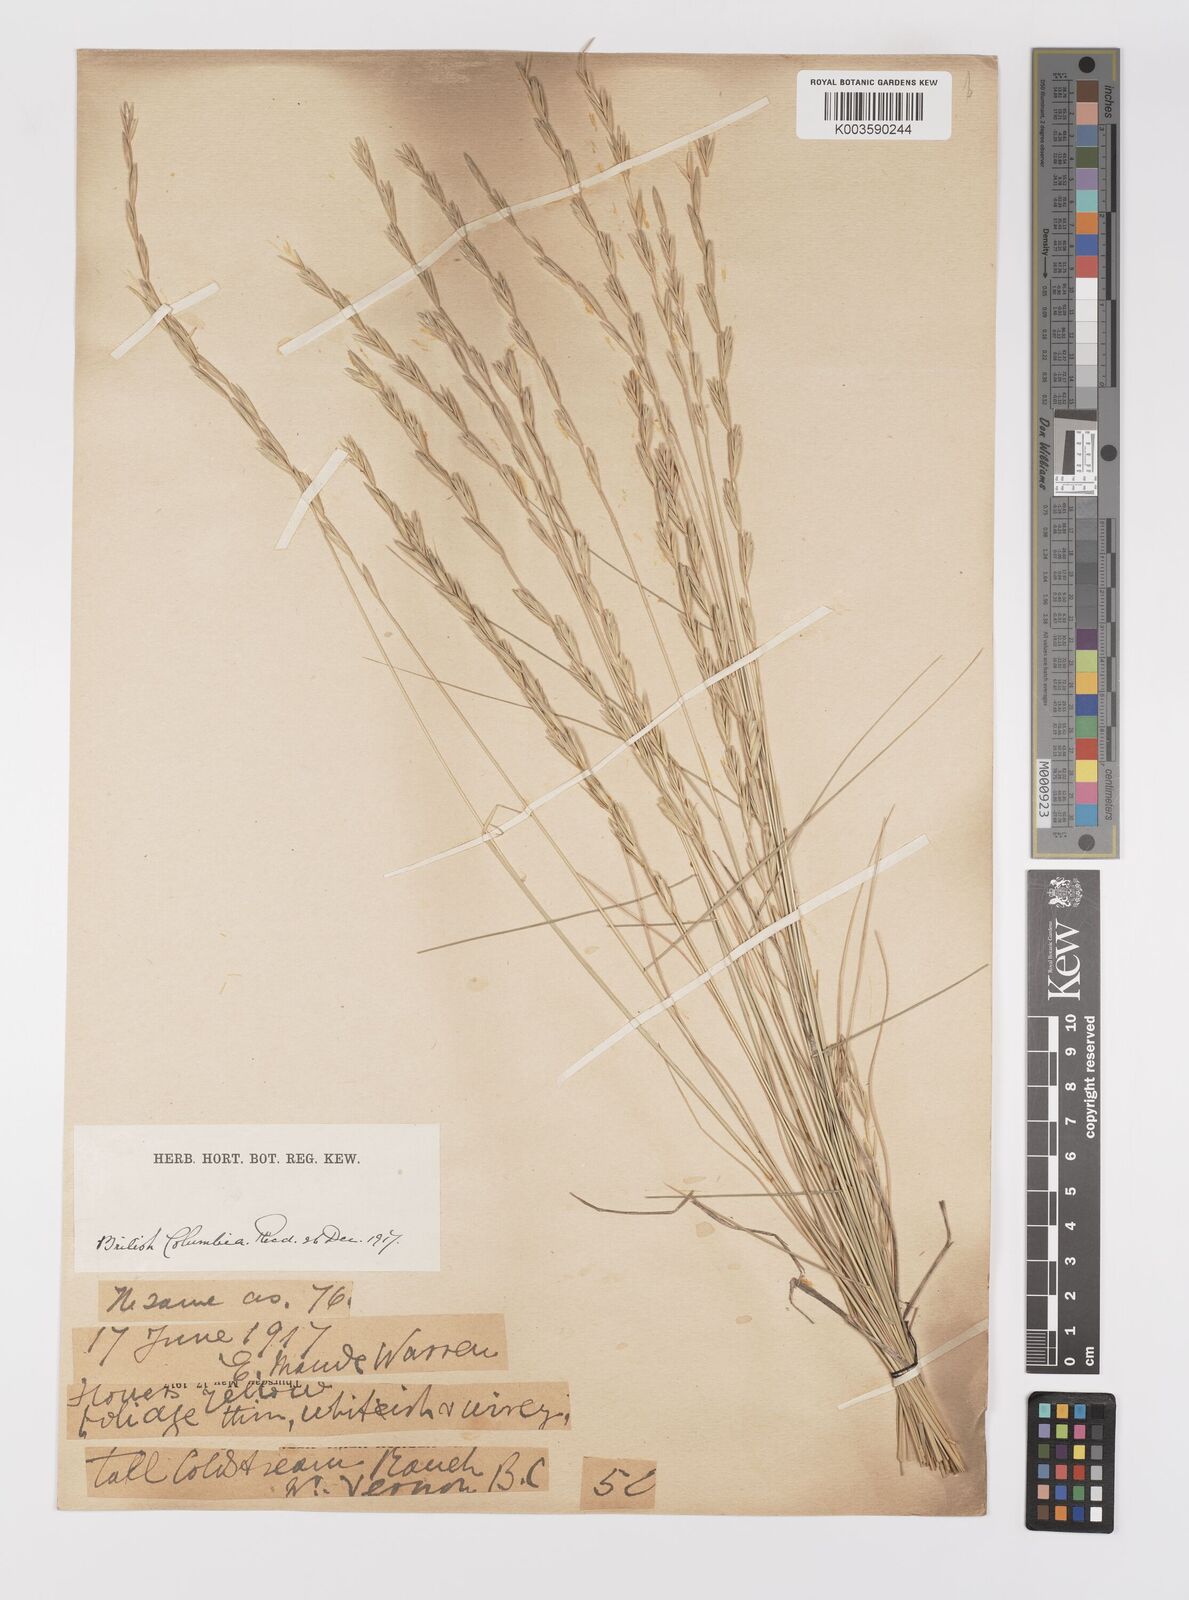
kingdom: Plantae
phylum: Tracheophyta
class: Liliopsida
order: Poales
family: Poaceae
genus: Elymus
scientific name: Elymus
